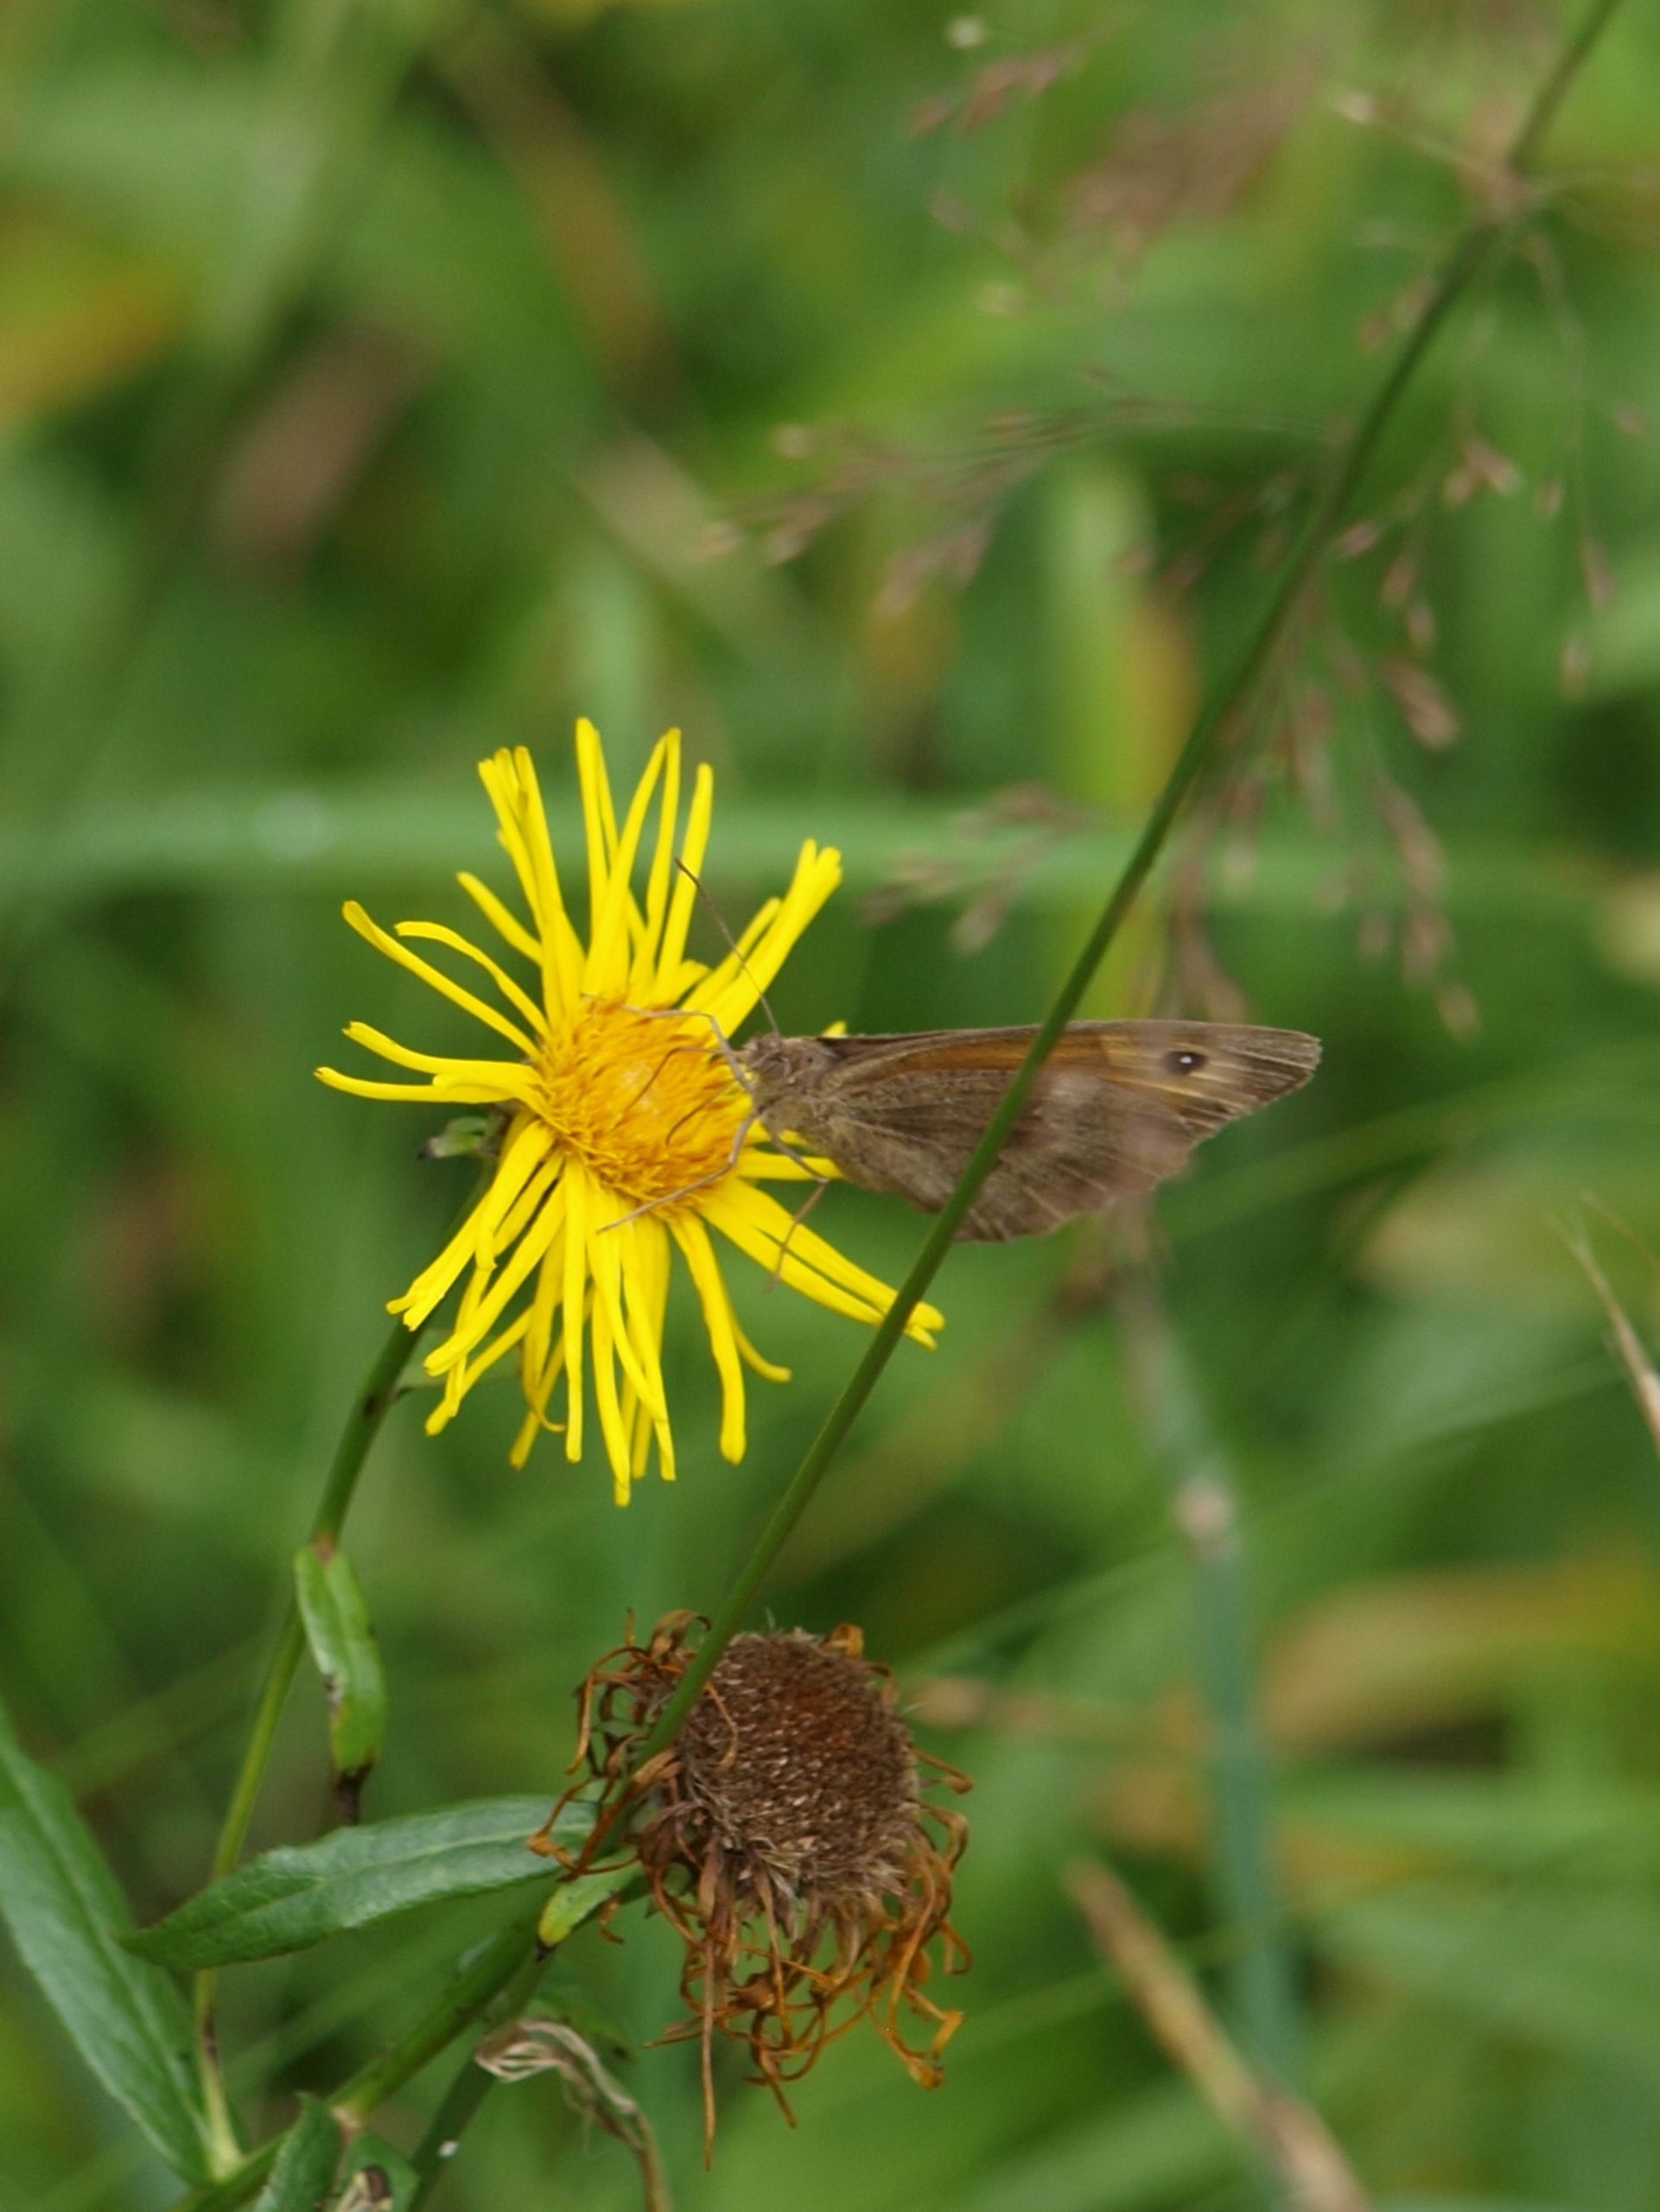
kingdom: Animalia
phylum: Arthropoda
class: Insecta
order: Lepidoptera
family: Nymphalidae
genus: Maniola
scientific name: Maniola jurtina
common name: Græsrandøje
